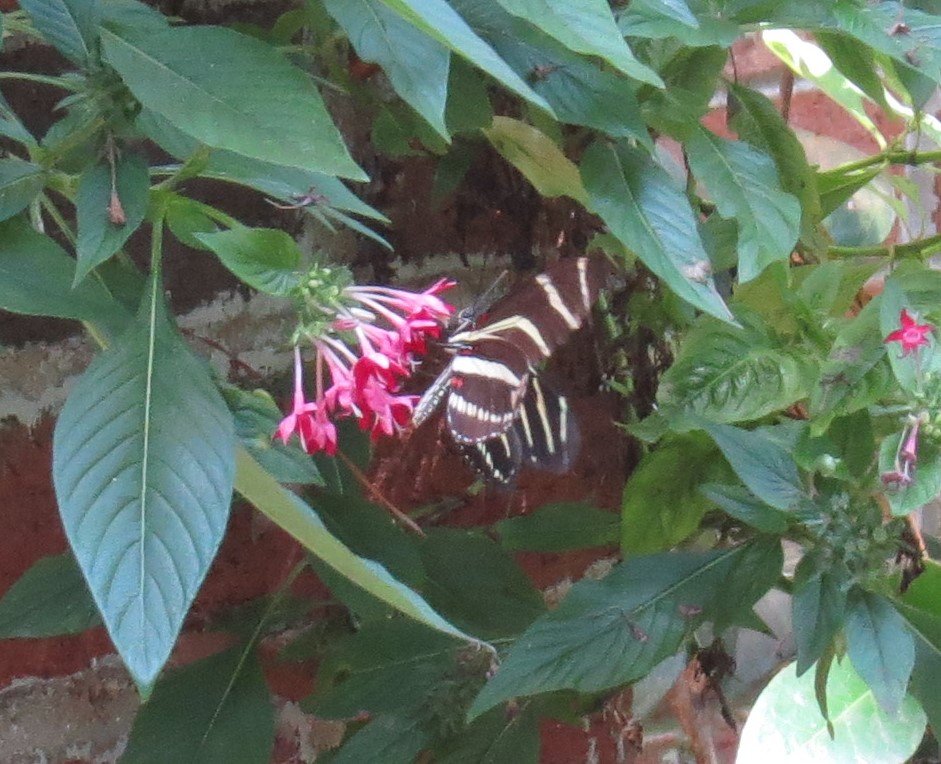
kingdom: Animalia
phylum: Arthropoda
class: Insecta
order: Lepidoptera
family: Nymphalidae
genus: Heliconius
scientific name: Heliconius charithonia
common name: Zebra Longwing
